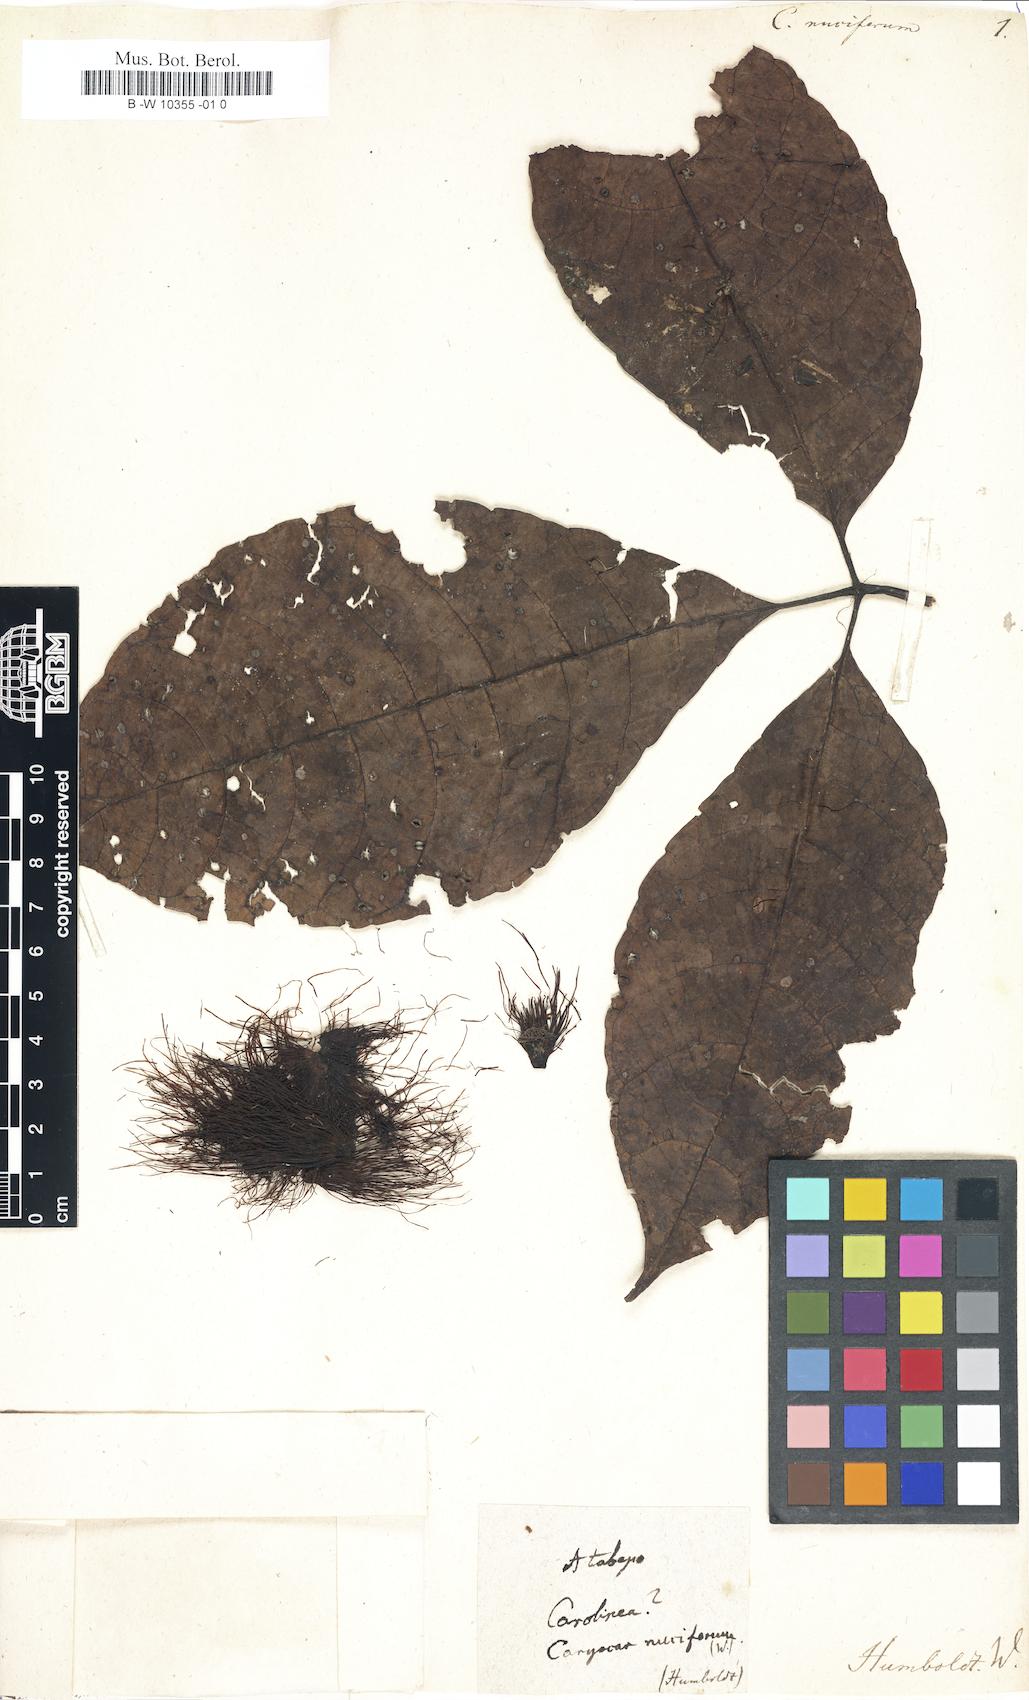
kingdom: Plantae
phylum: Tracheophyta
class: Magnoliopsida
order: Malpighiales
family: Caryocaraceae
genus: Caryocar
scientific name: Caryocar nuciferum
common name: Souari-nut
